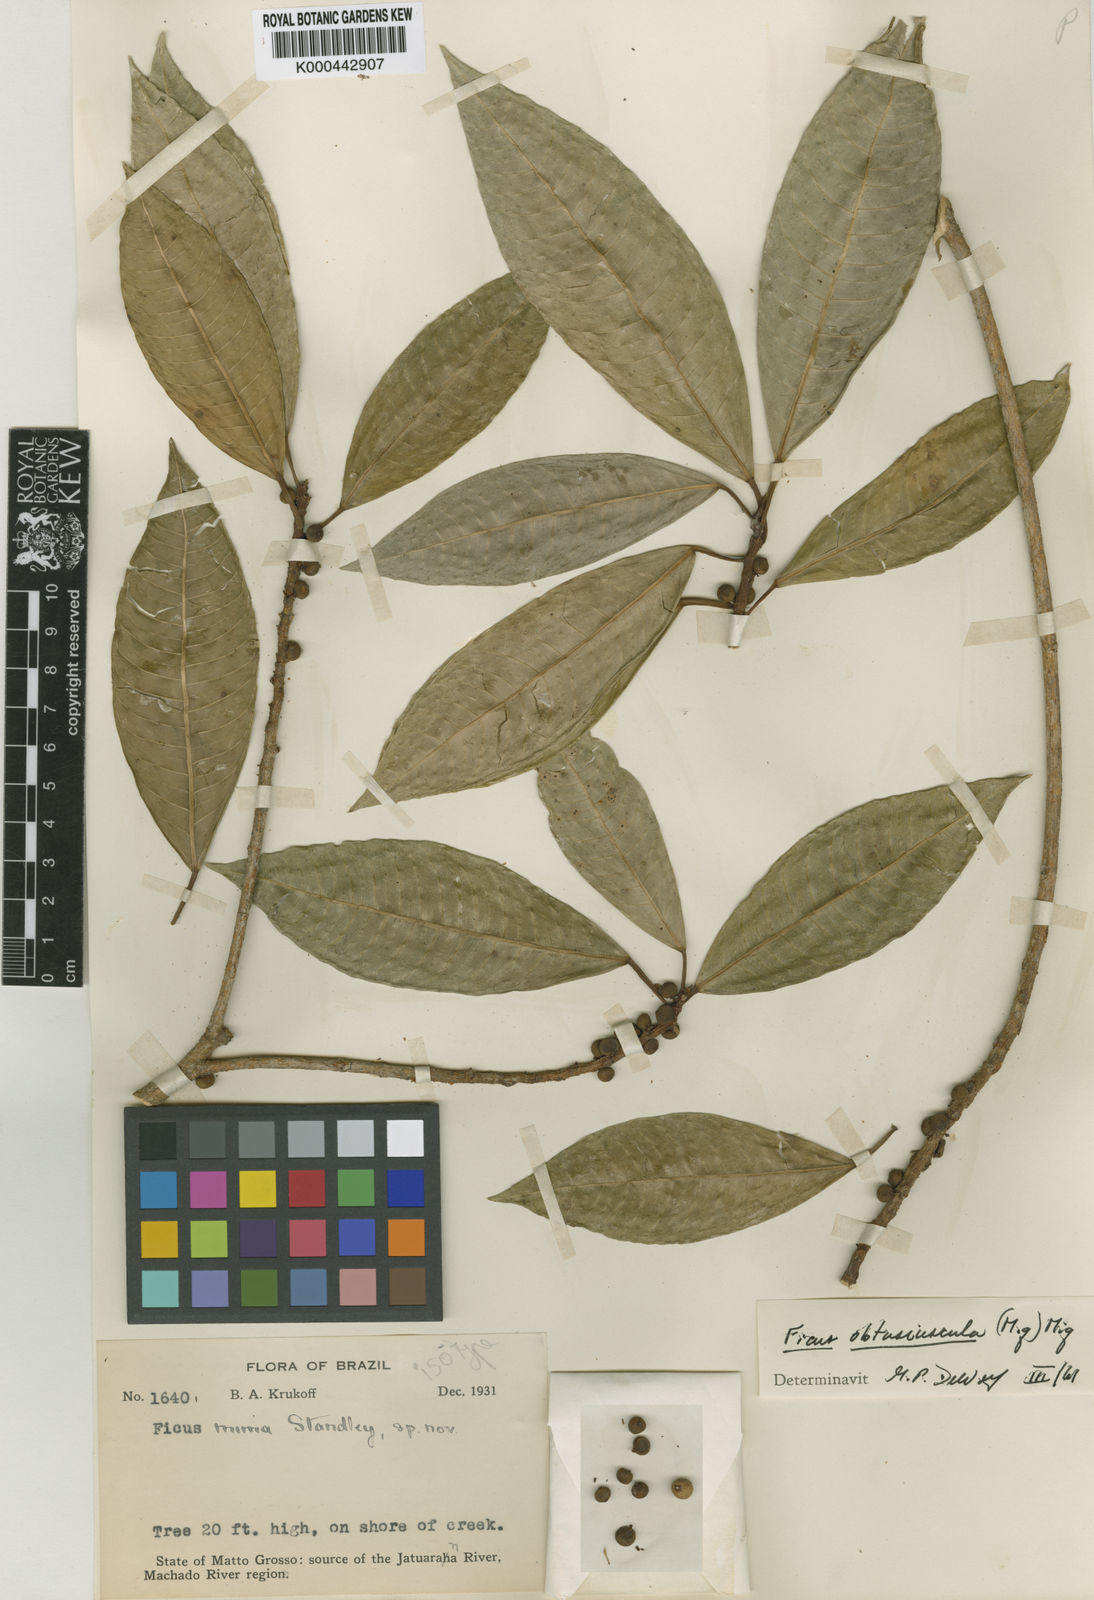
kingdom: Plantae
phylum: Tracheophyta
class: Magnoliopsida
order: Rosales
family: Moraceae
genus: Ficus
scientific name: Ficus obtusiuscula
